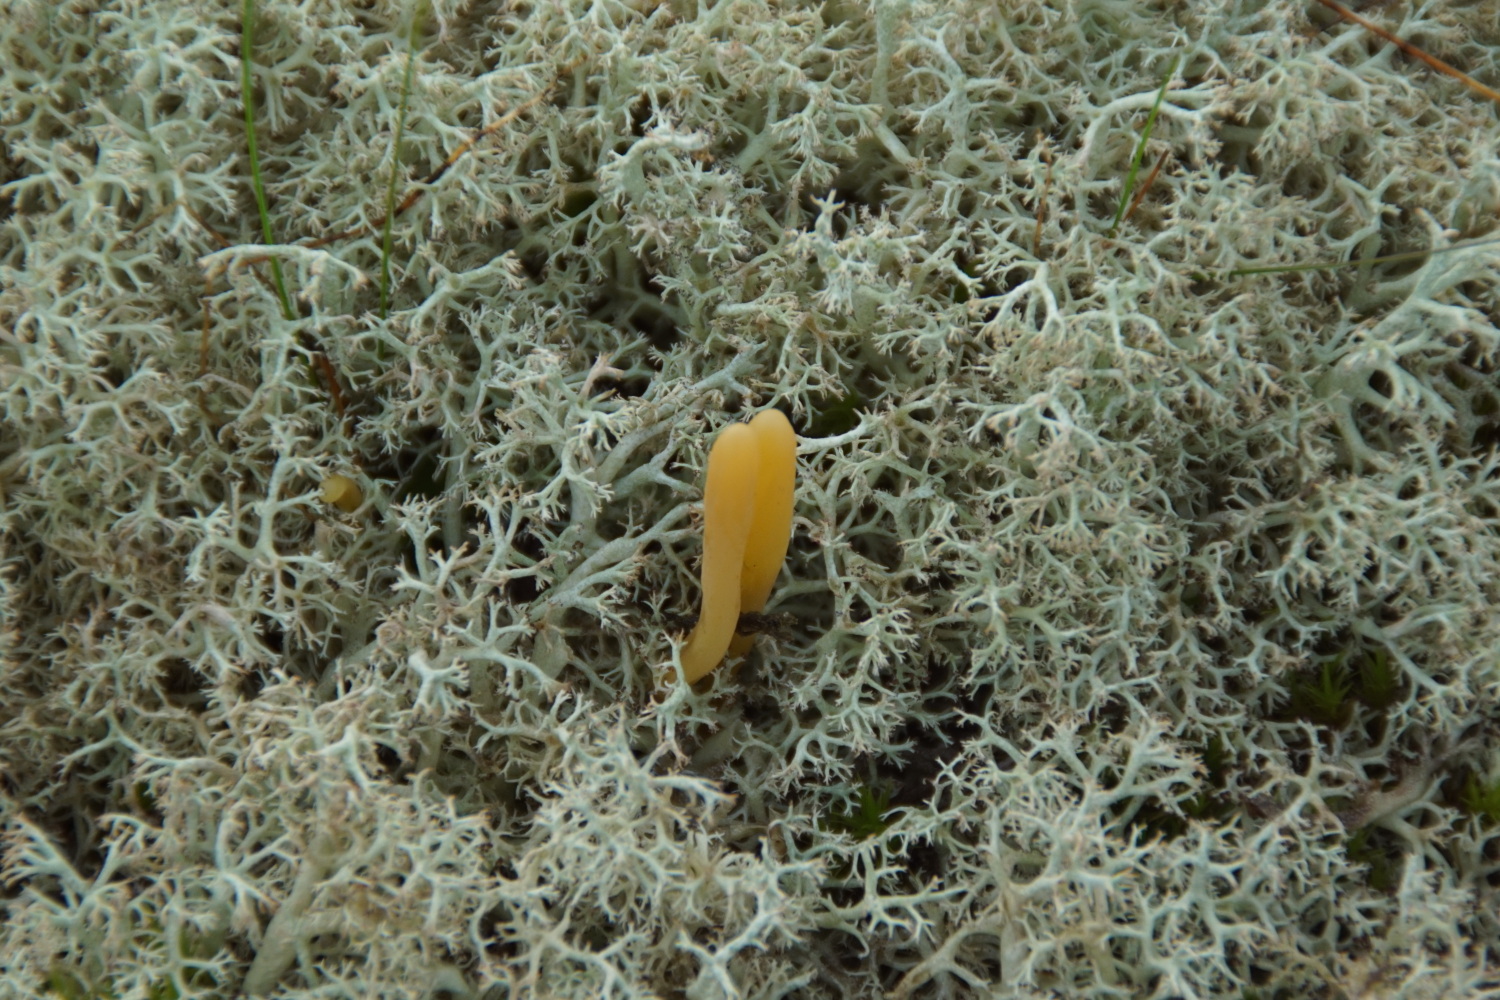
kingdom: Fungi
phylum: Basidiomycota
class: Agaricomycetes
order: Agaricales
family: Clavariaceae
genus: Clavaria
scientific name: Clavaria argillacea
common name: lerfarvet køllesvamp
